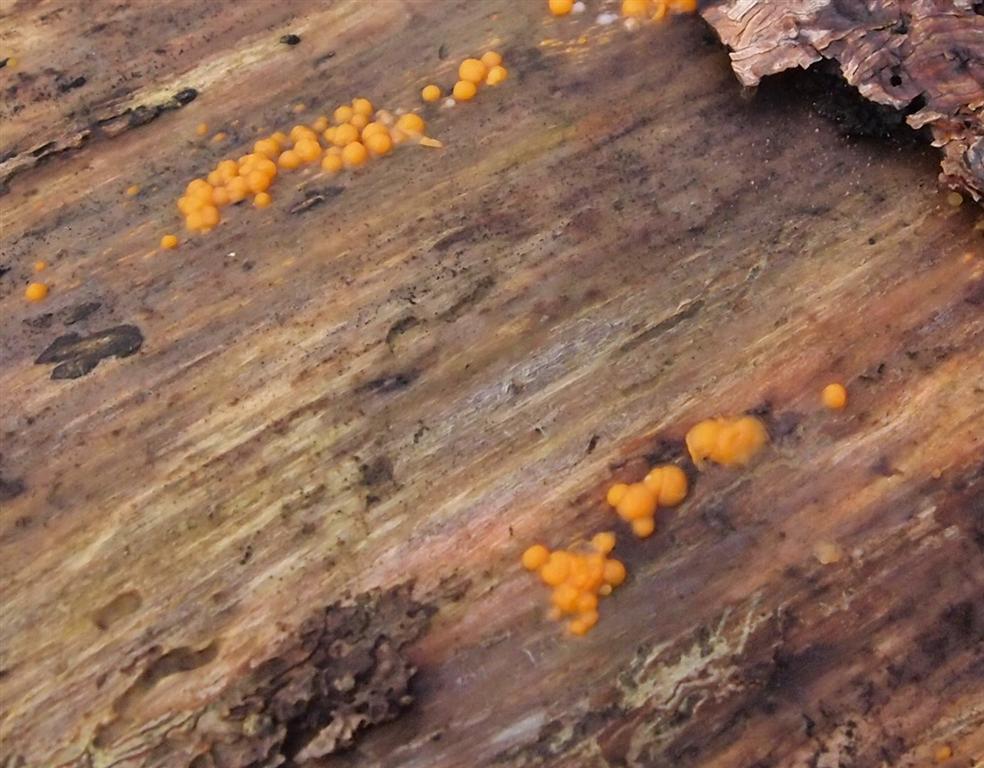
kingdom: Fungi
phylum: Basidiomycota
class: Dacrymycetes
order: Dacrymycetales
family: Dacrymycetaceae
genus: Dacrymyces
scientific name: Dacrymyces stillatus
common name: almindelig tåresvamp
